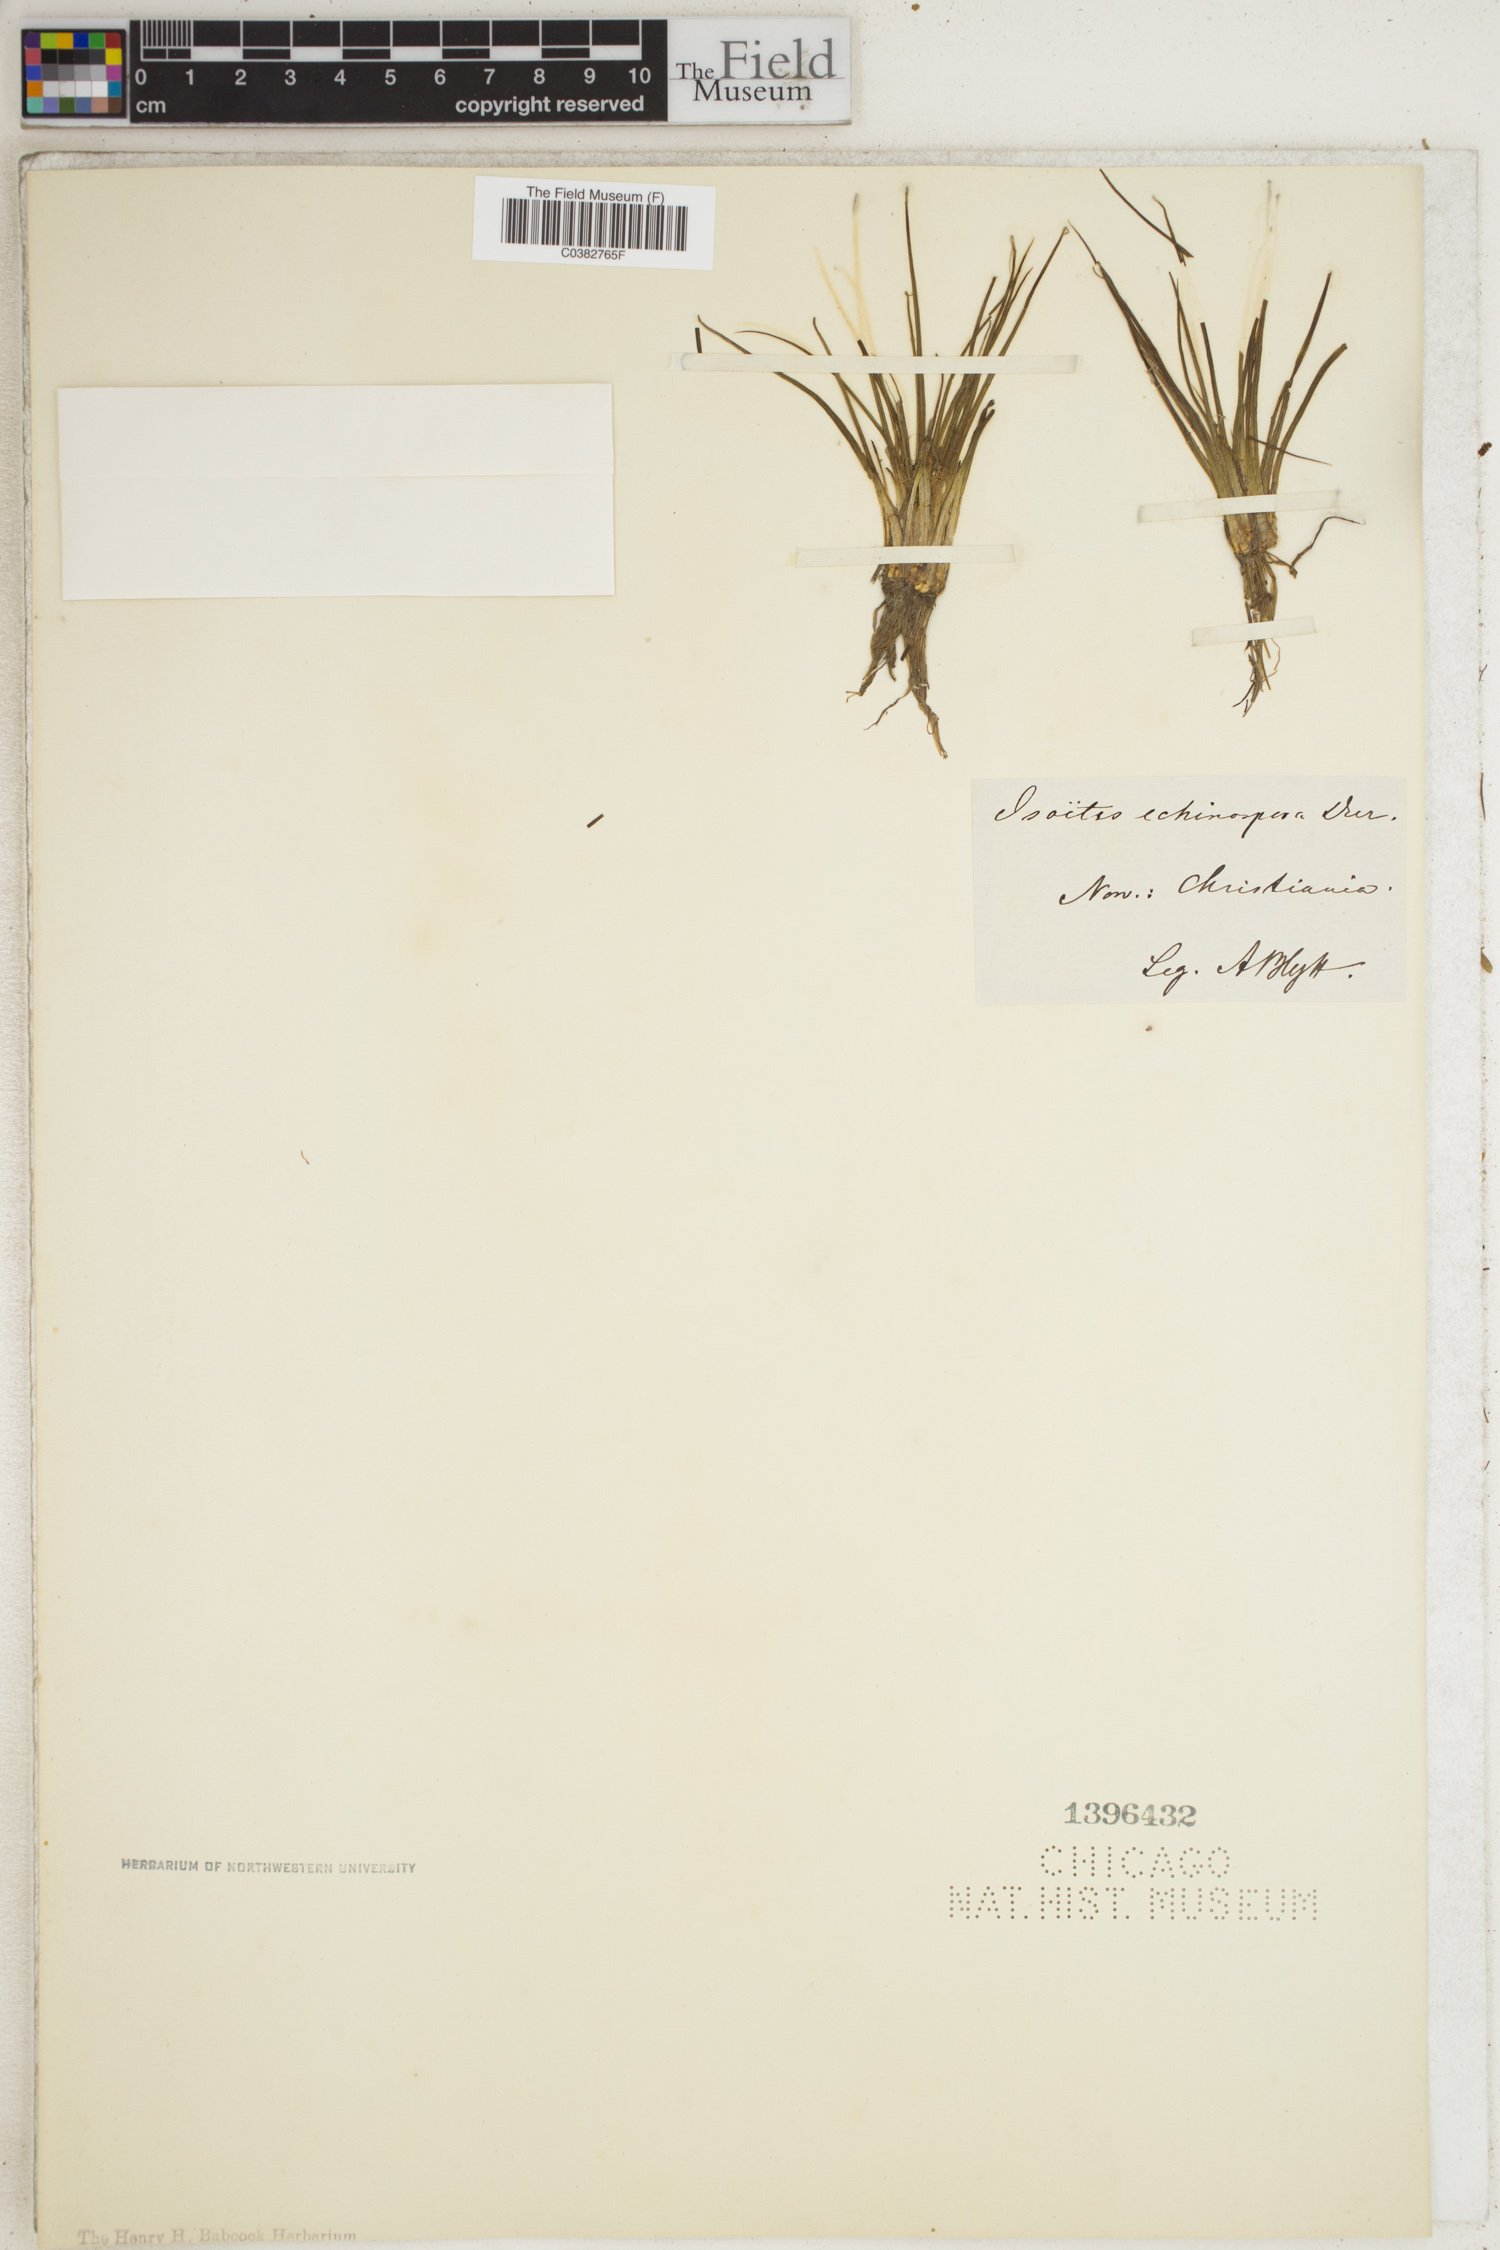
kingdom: Plantae
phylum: Tracheophyta
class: Lycopodiopsida
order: Isoetales
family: Isoetaceae
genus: Isoetes
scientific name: Isoetes echinospora
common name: Spring quillwort
